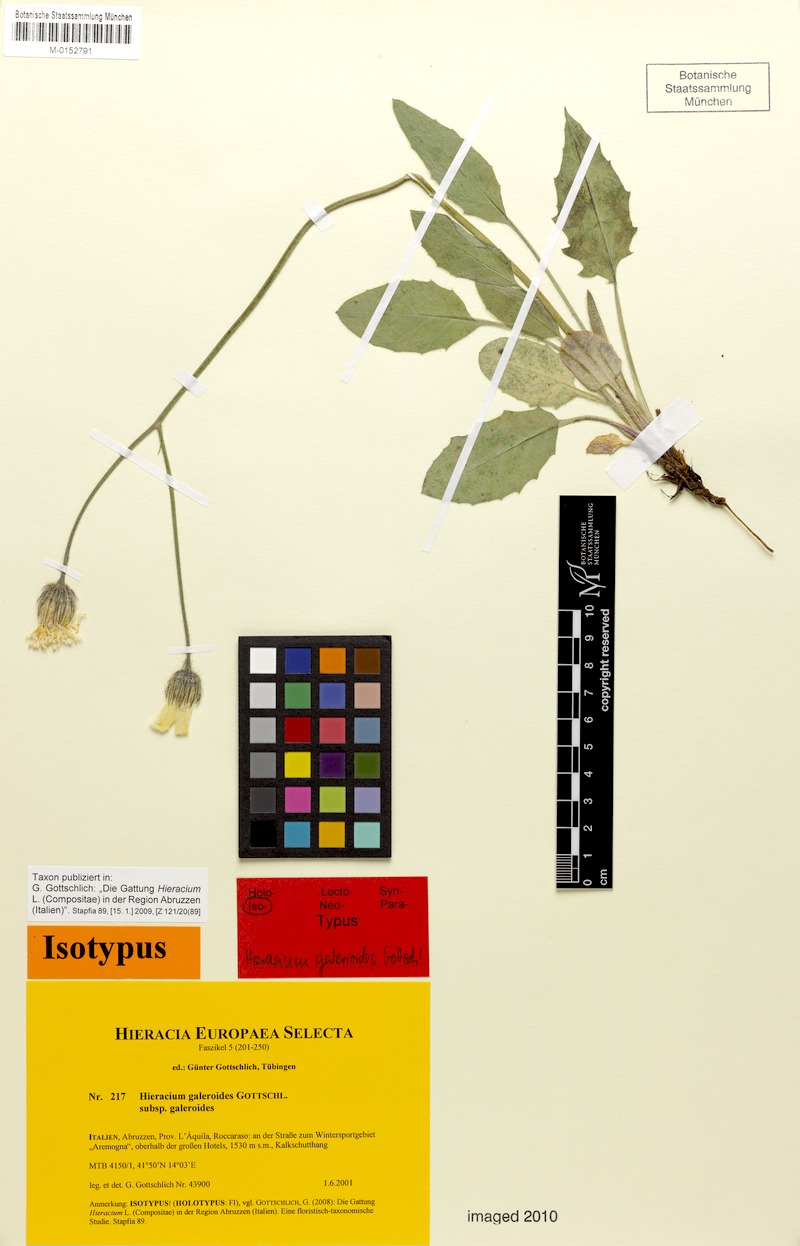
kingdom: Plantae
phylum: Tracheophyta
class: Magnoliopsida
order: Asterales
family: Asteraceae
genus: Hieracium
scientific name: Hieracium galeroides
